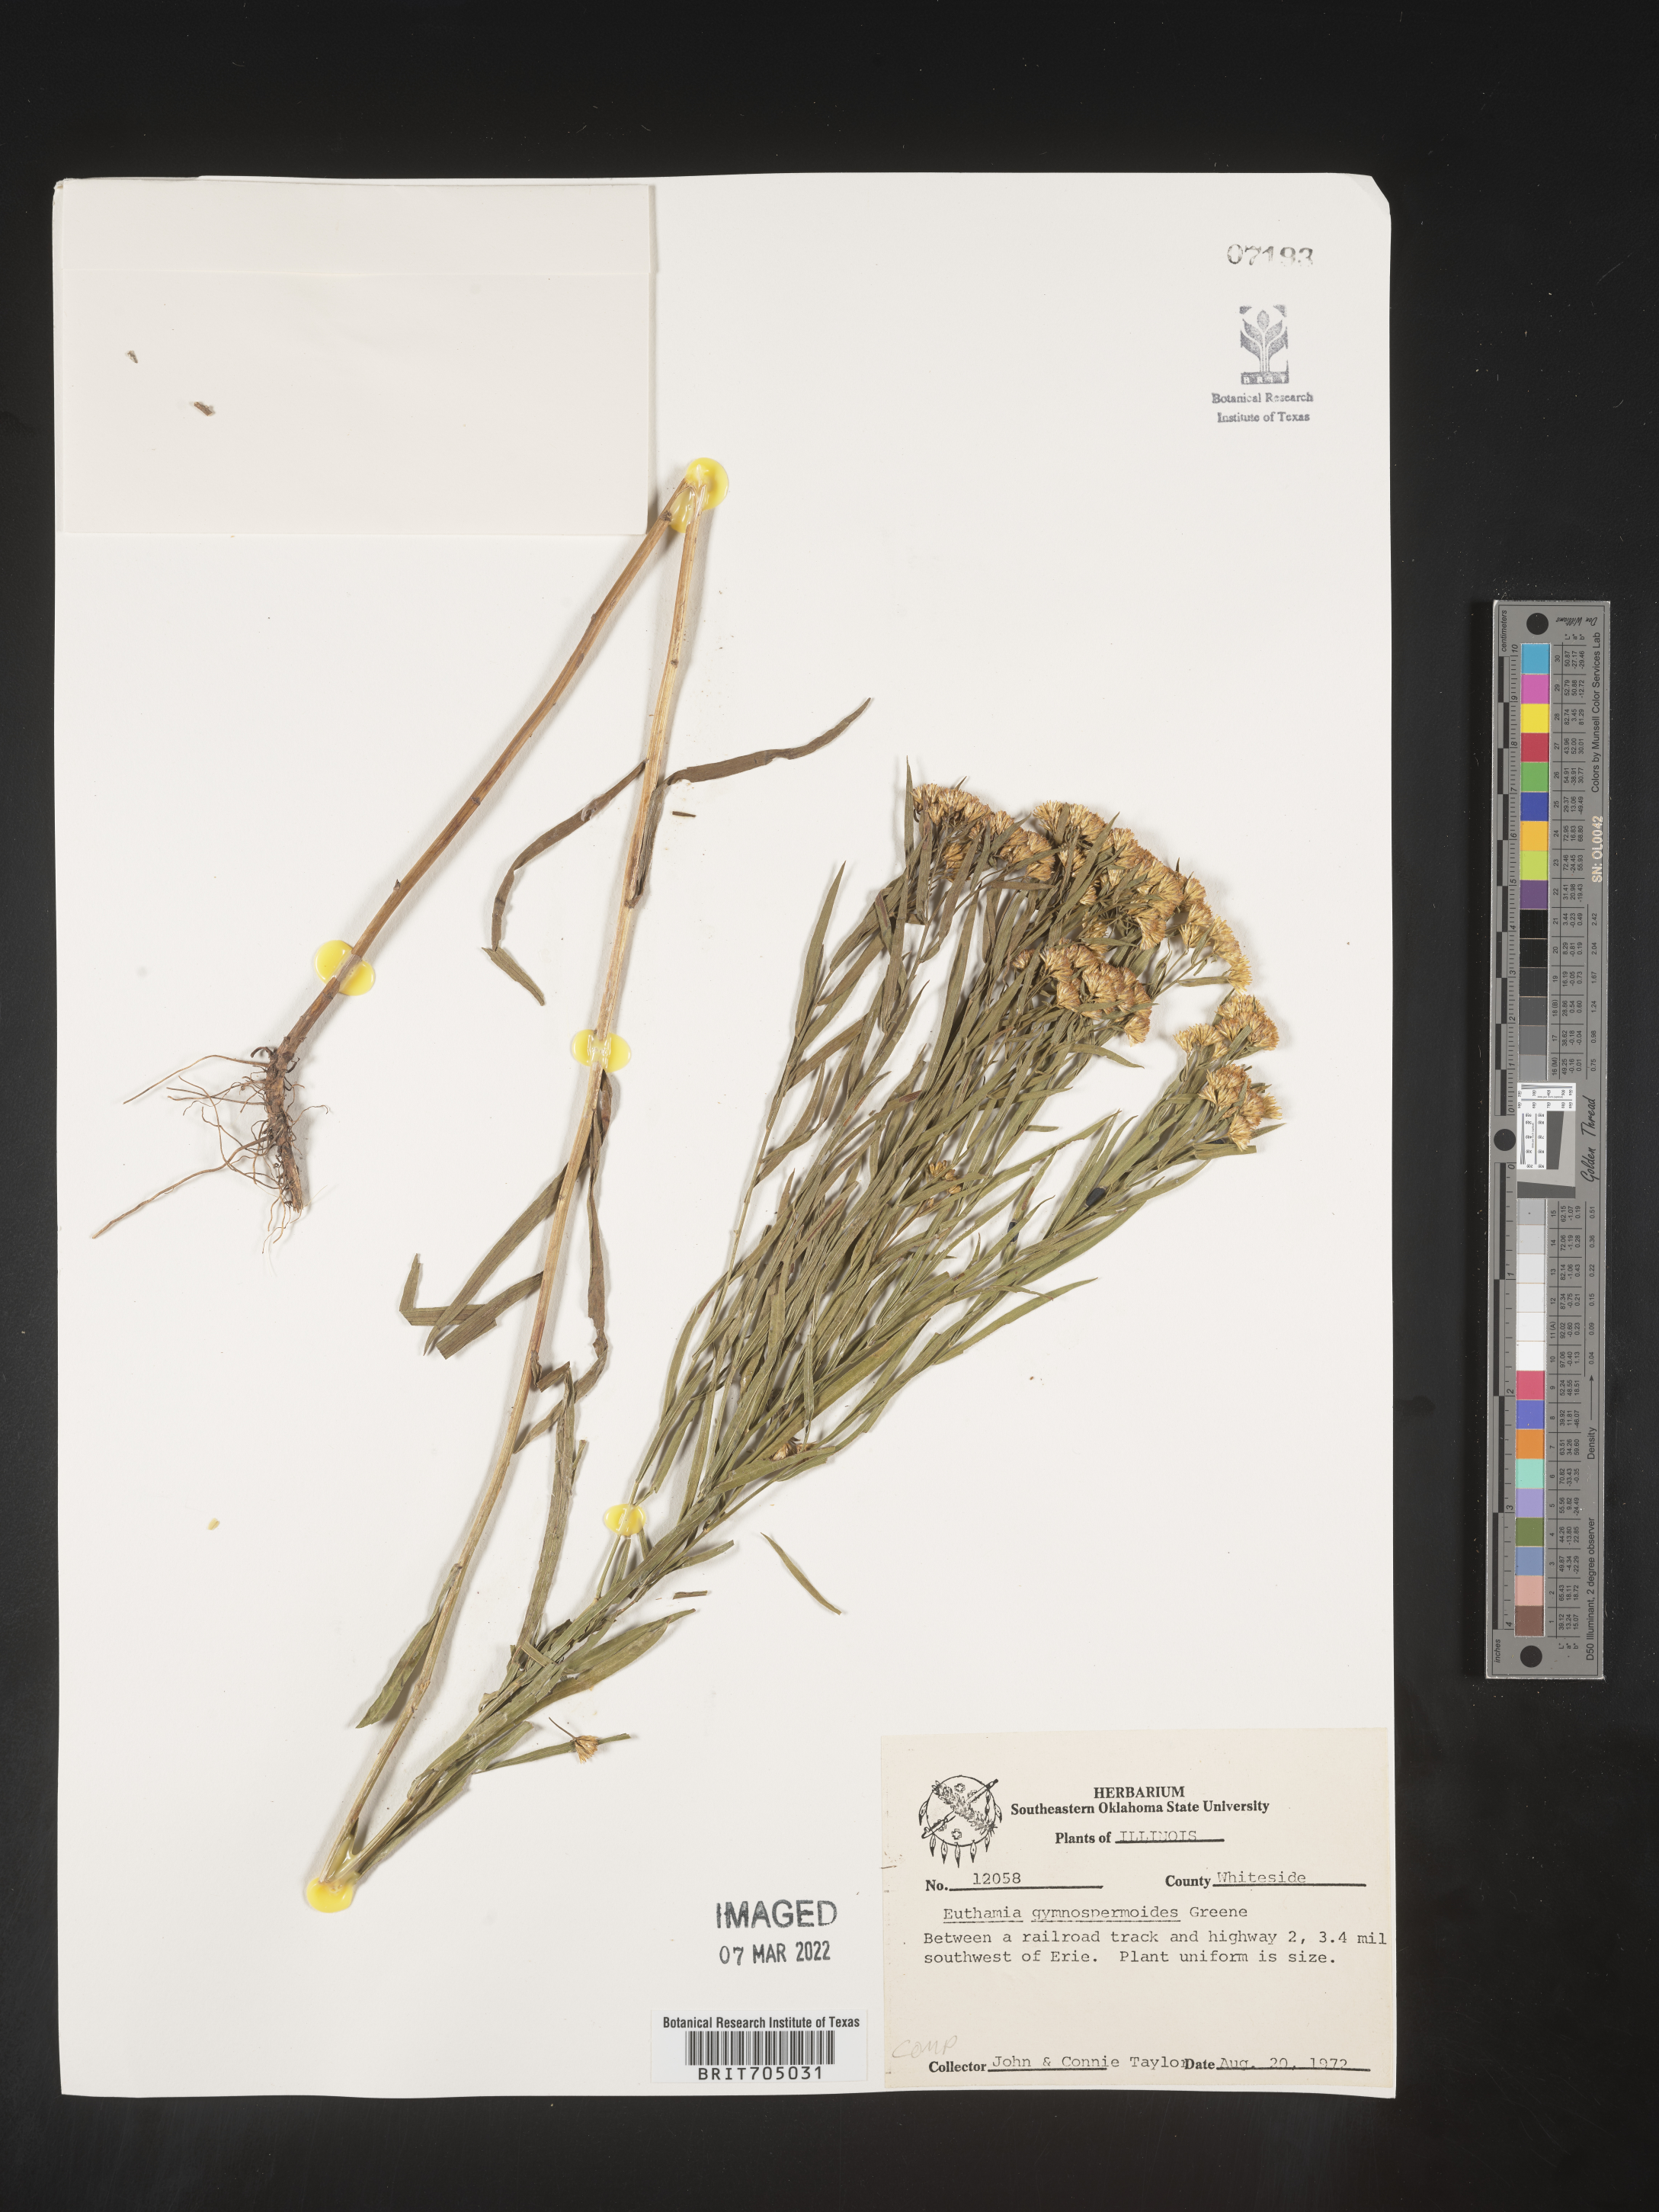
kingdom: Plantae
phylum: Tracheophyta
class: Magnoliopsida
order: Asterales
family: Asteraceae
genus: Euthamia
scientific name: Euthamia gymnospermoides
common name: Great plains goldentop
